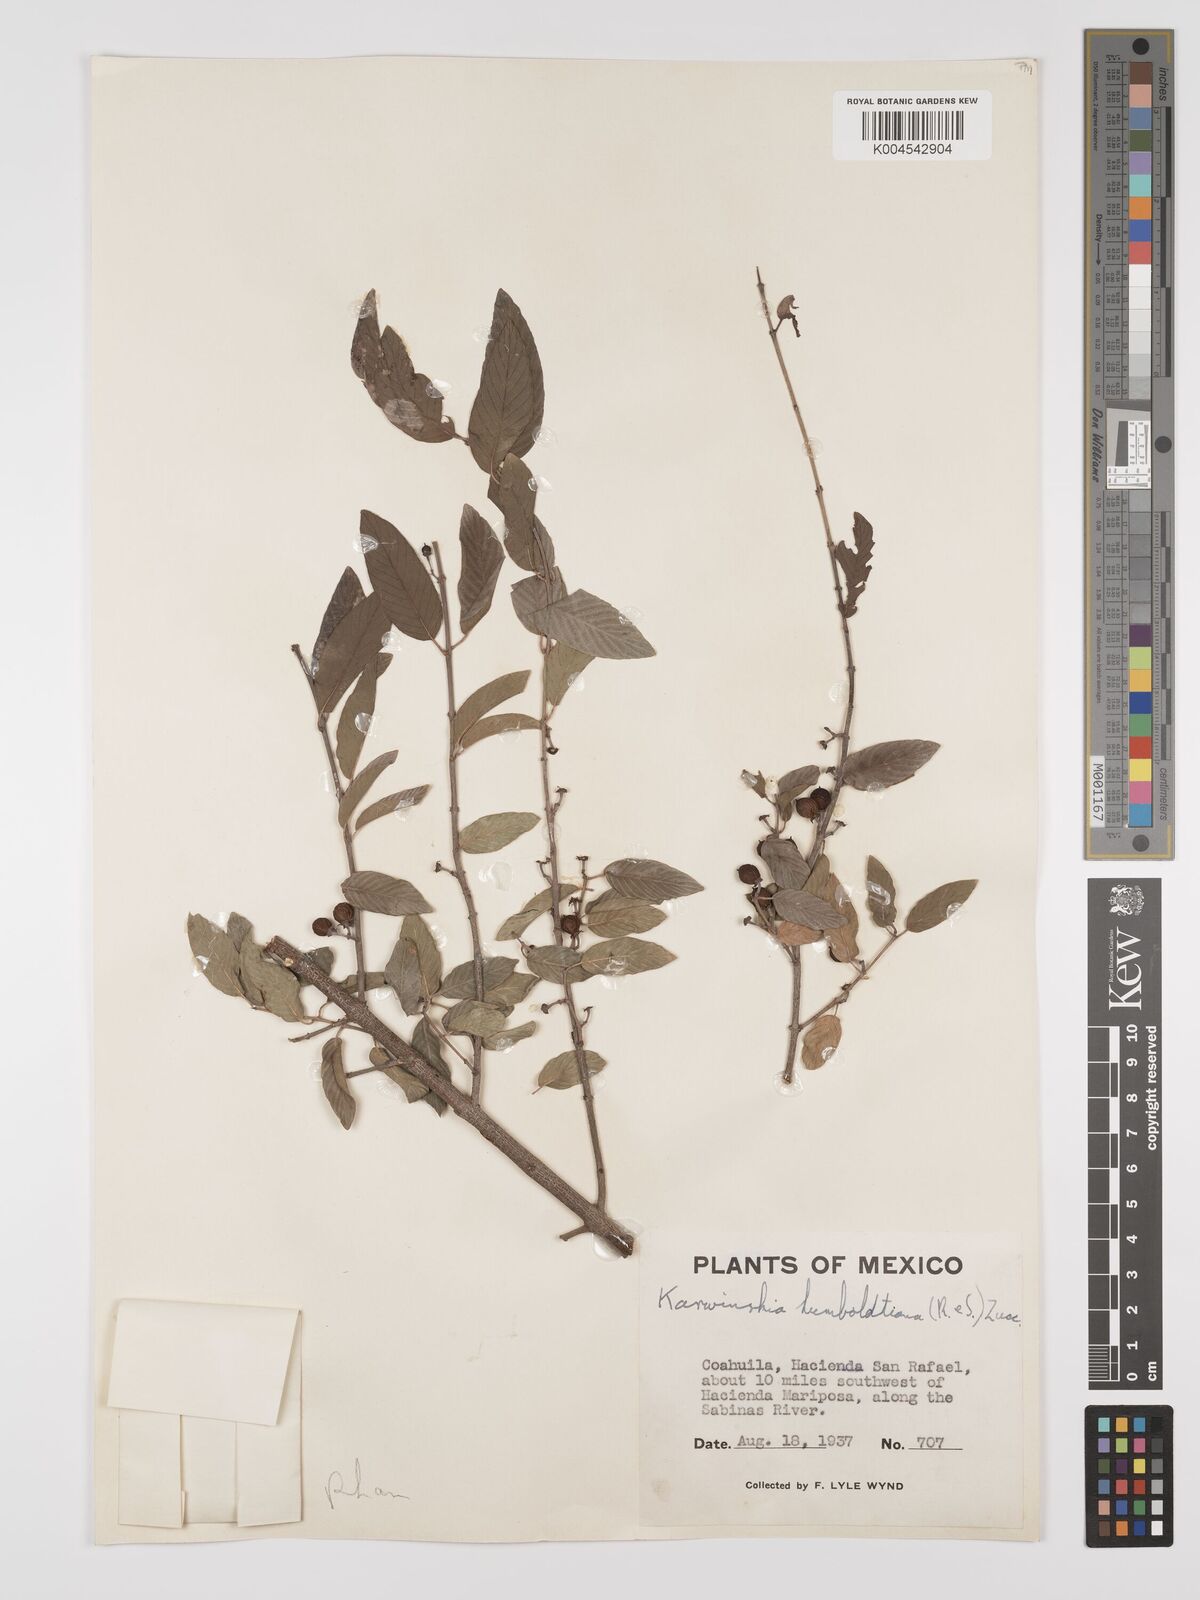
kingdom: Plantae
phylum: Tracheophyta
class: Magnoliopsida
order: Rosales
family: Rhamnaceae
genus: Karwinskia
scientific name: Karwinskia humboldtiana
